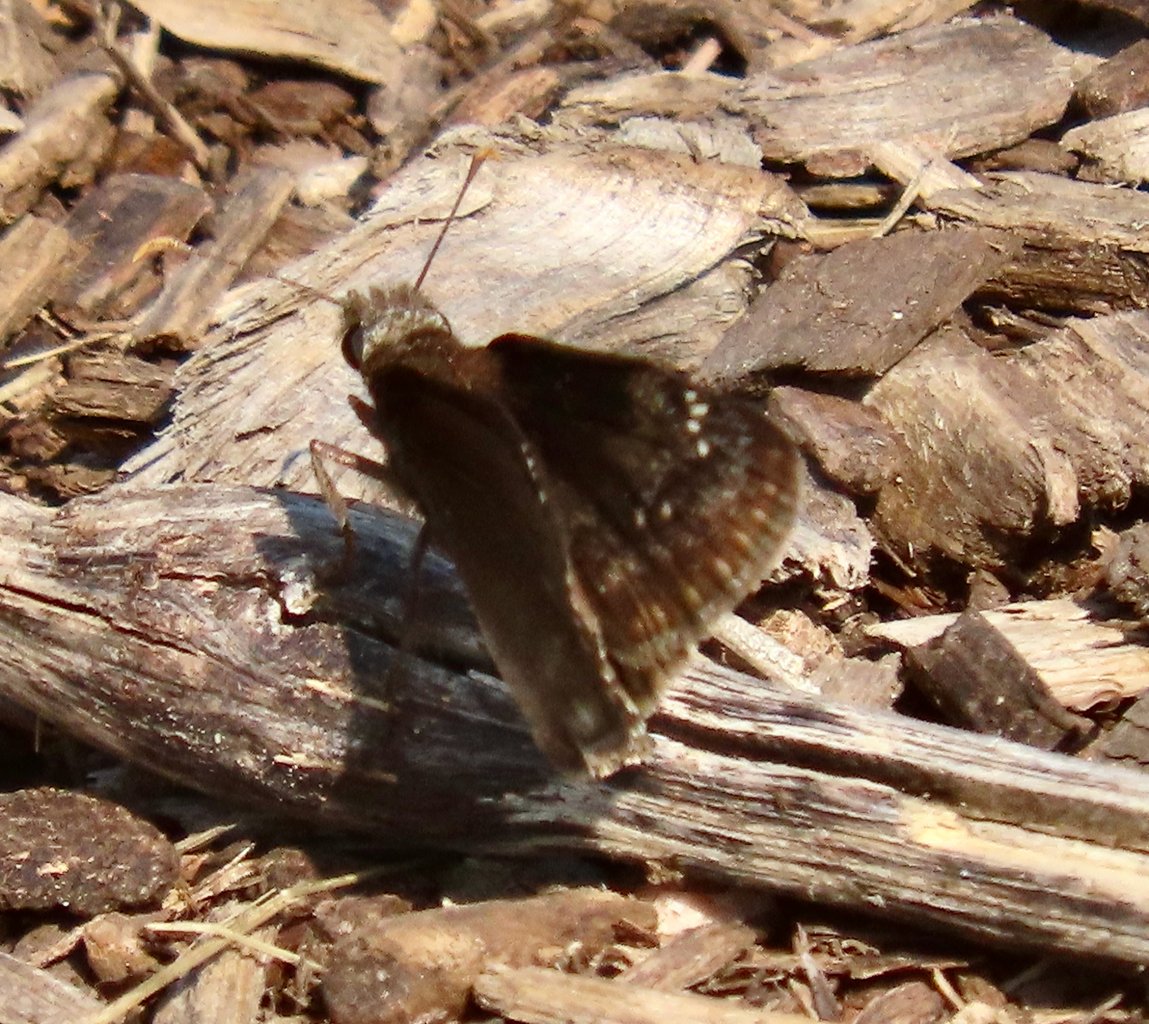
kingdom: Animalia
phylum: Arthropoda
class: Insecta
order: Lepidoptera
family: Hesperiidae
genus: Gesta
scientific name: Gesta
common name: Wild Indigo Duskywing
